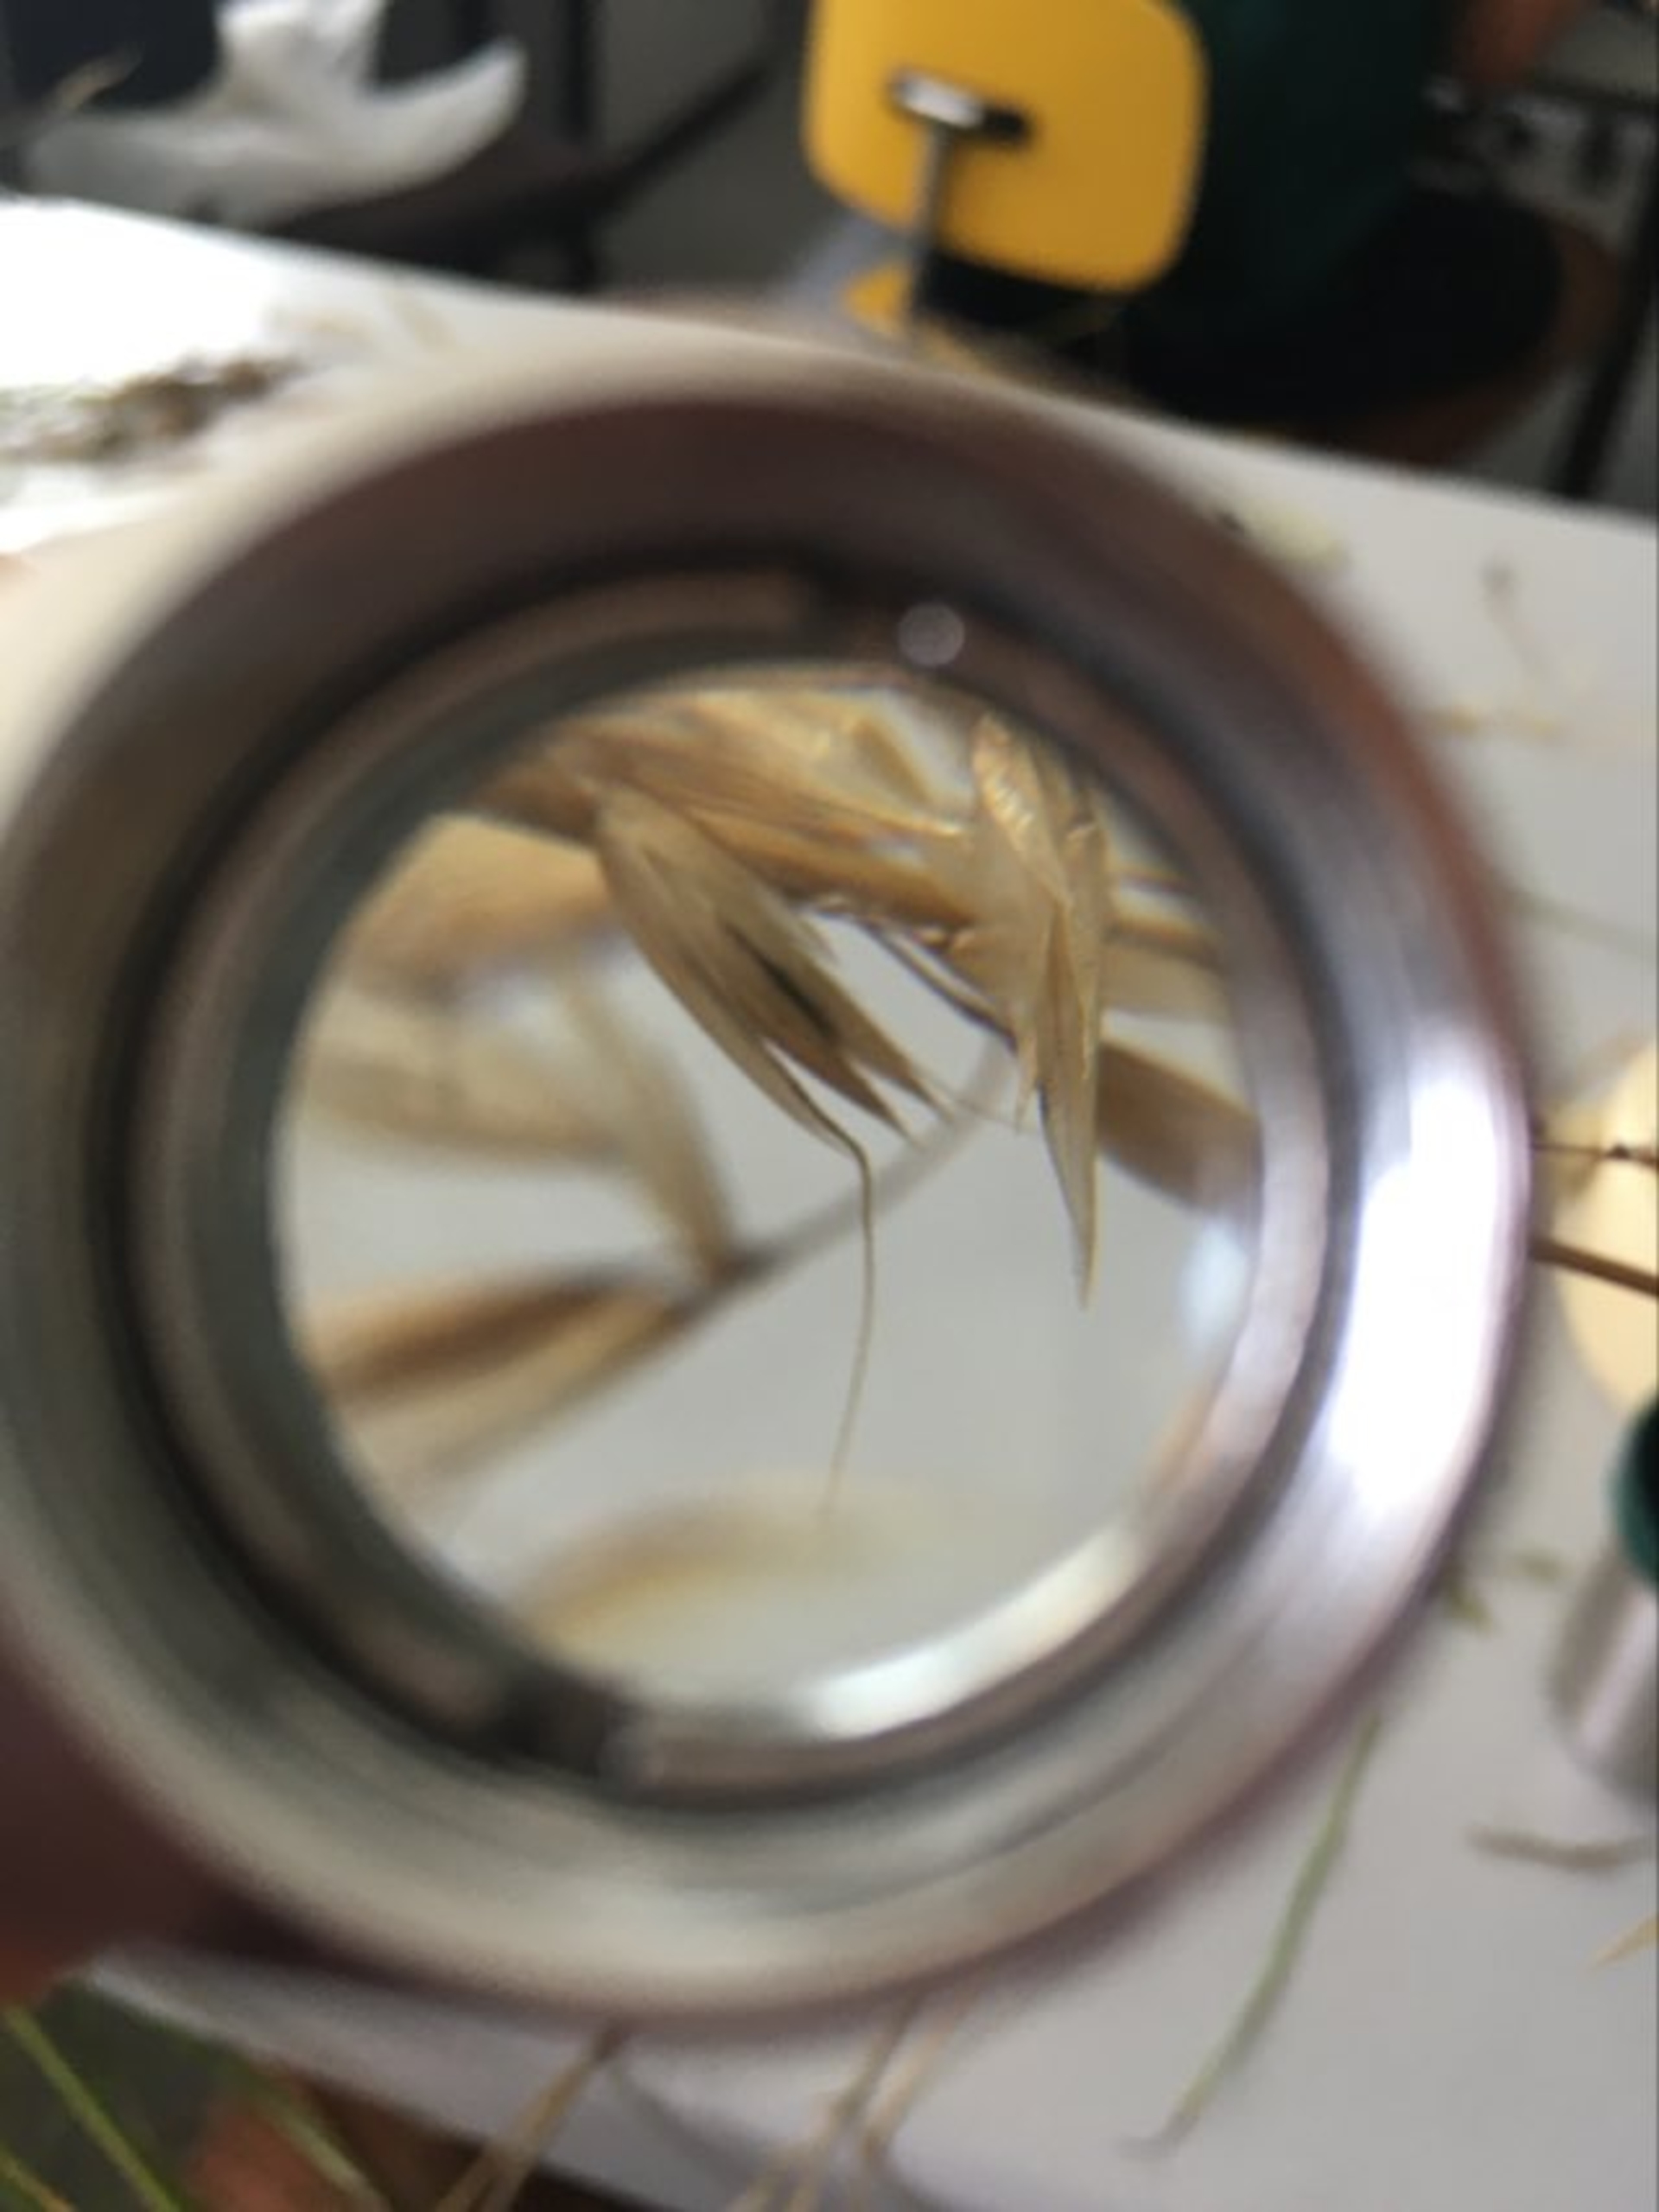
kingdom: Plantae
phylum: Tracheophyta
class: Liliopsida
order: Poales
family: Poaceae
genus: Arrhenatherum
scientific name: Arrhenatherum elatius
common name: Draphavre
